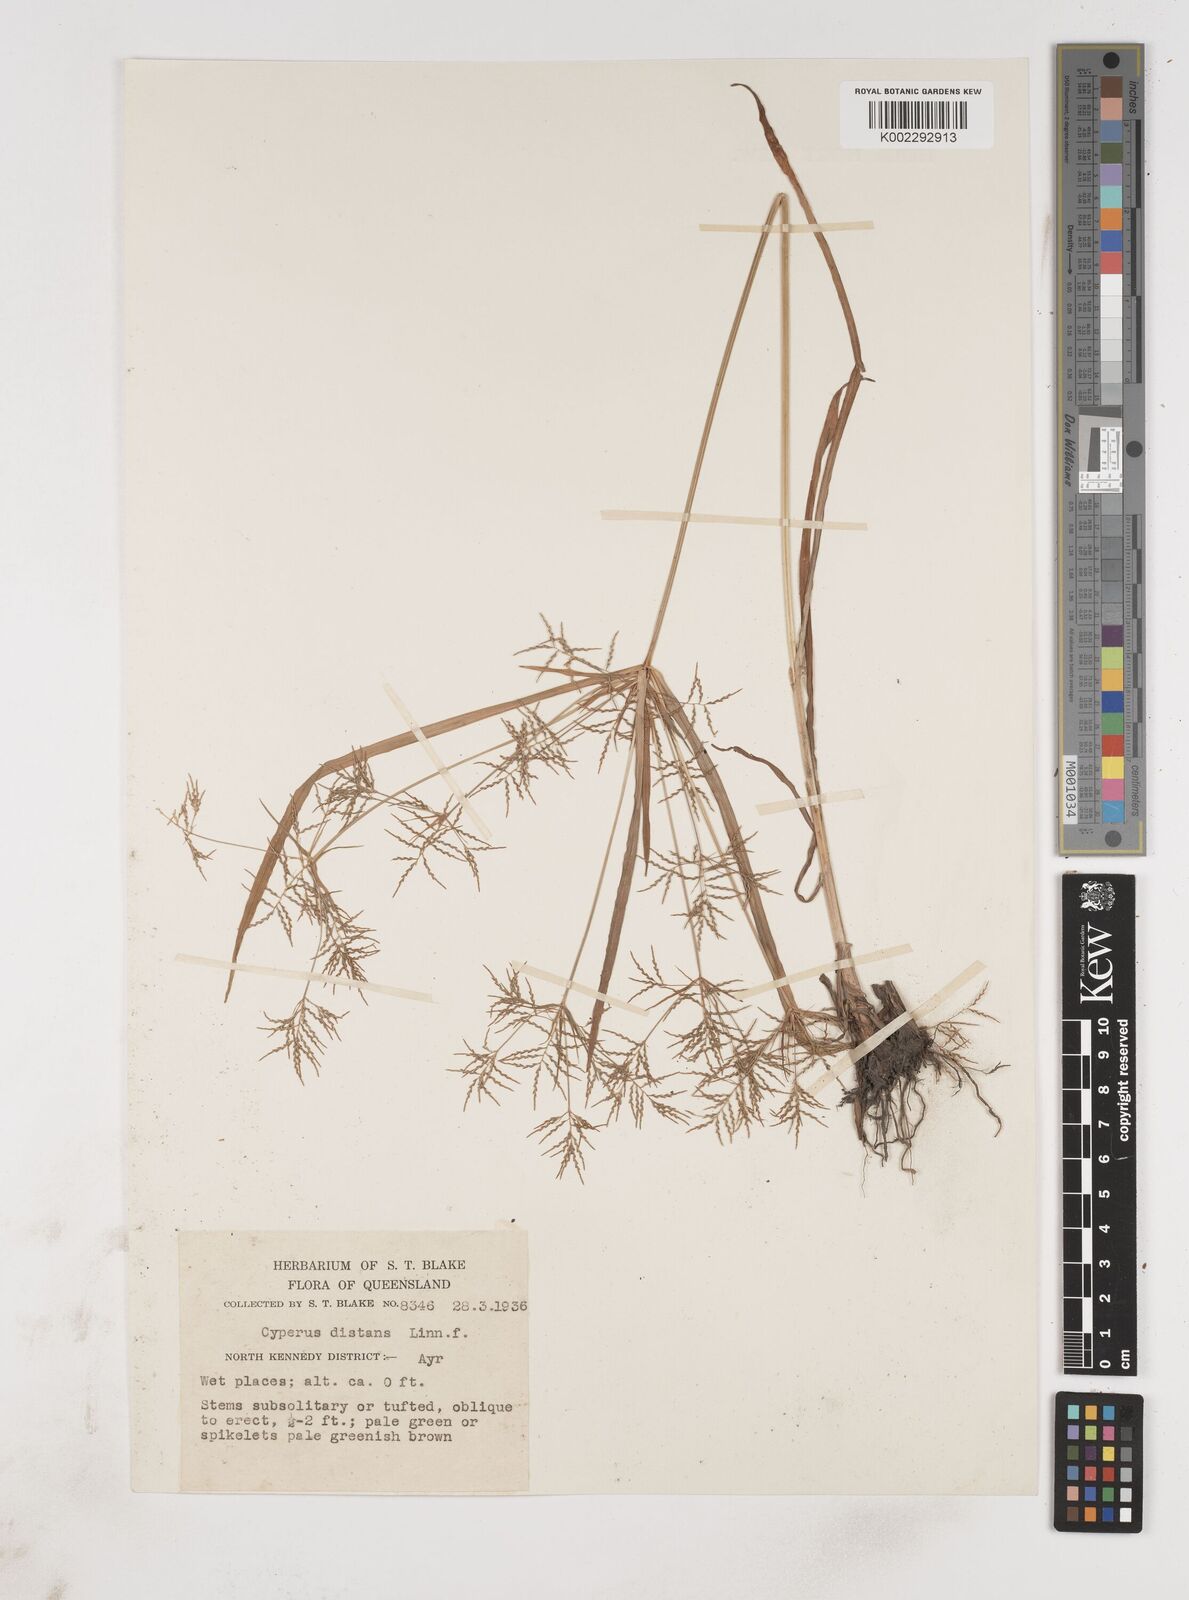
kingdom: Plantae
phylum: Tracheophyta
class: Liliopsida
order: Poales
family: Cyperaceae
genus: Cyperus
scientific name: Cyperus distans
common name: Slender cyperus
